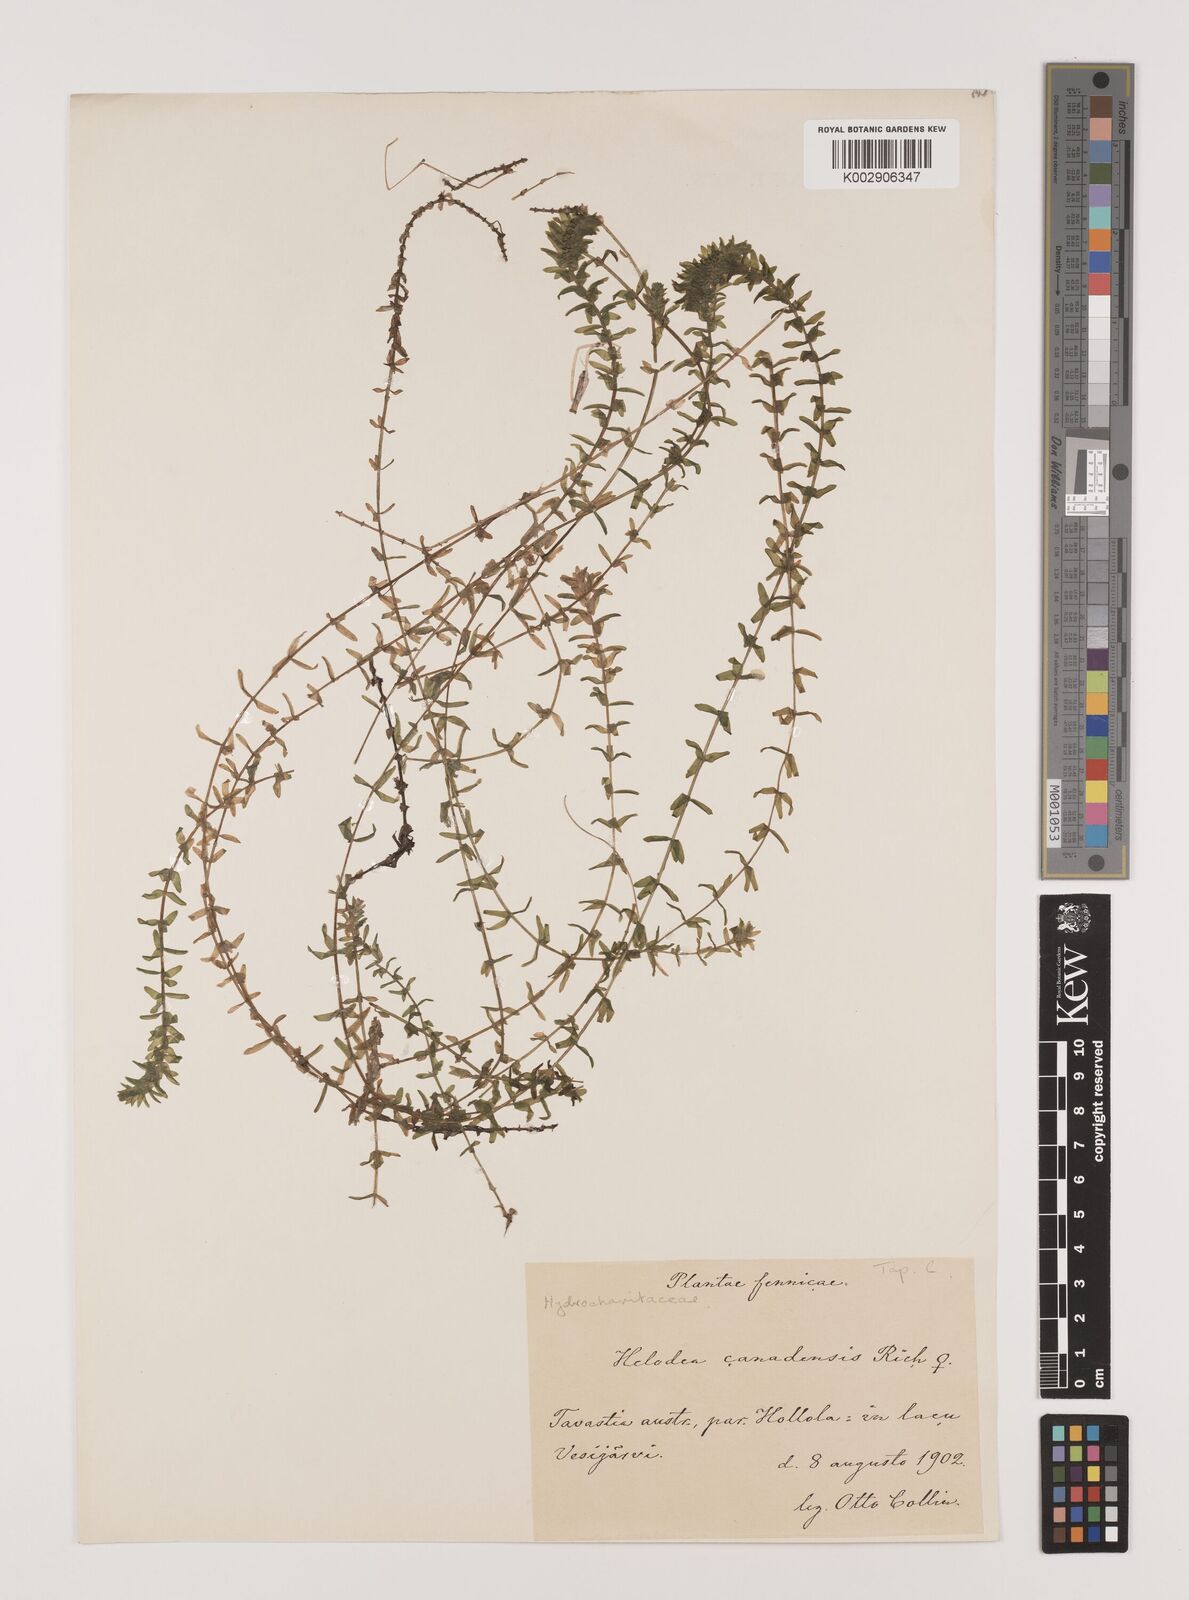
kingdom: Plantae
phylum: Tracheophyta
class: Liliopsida
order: Alismatales
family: Hydrocharitaceae
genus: Elodea
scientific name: Elodea canadensis
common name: Canadian waterweed
